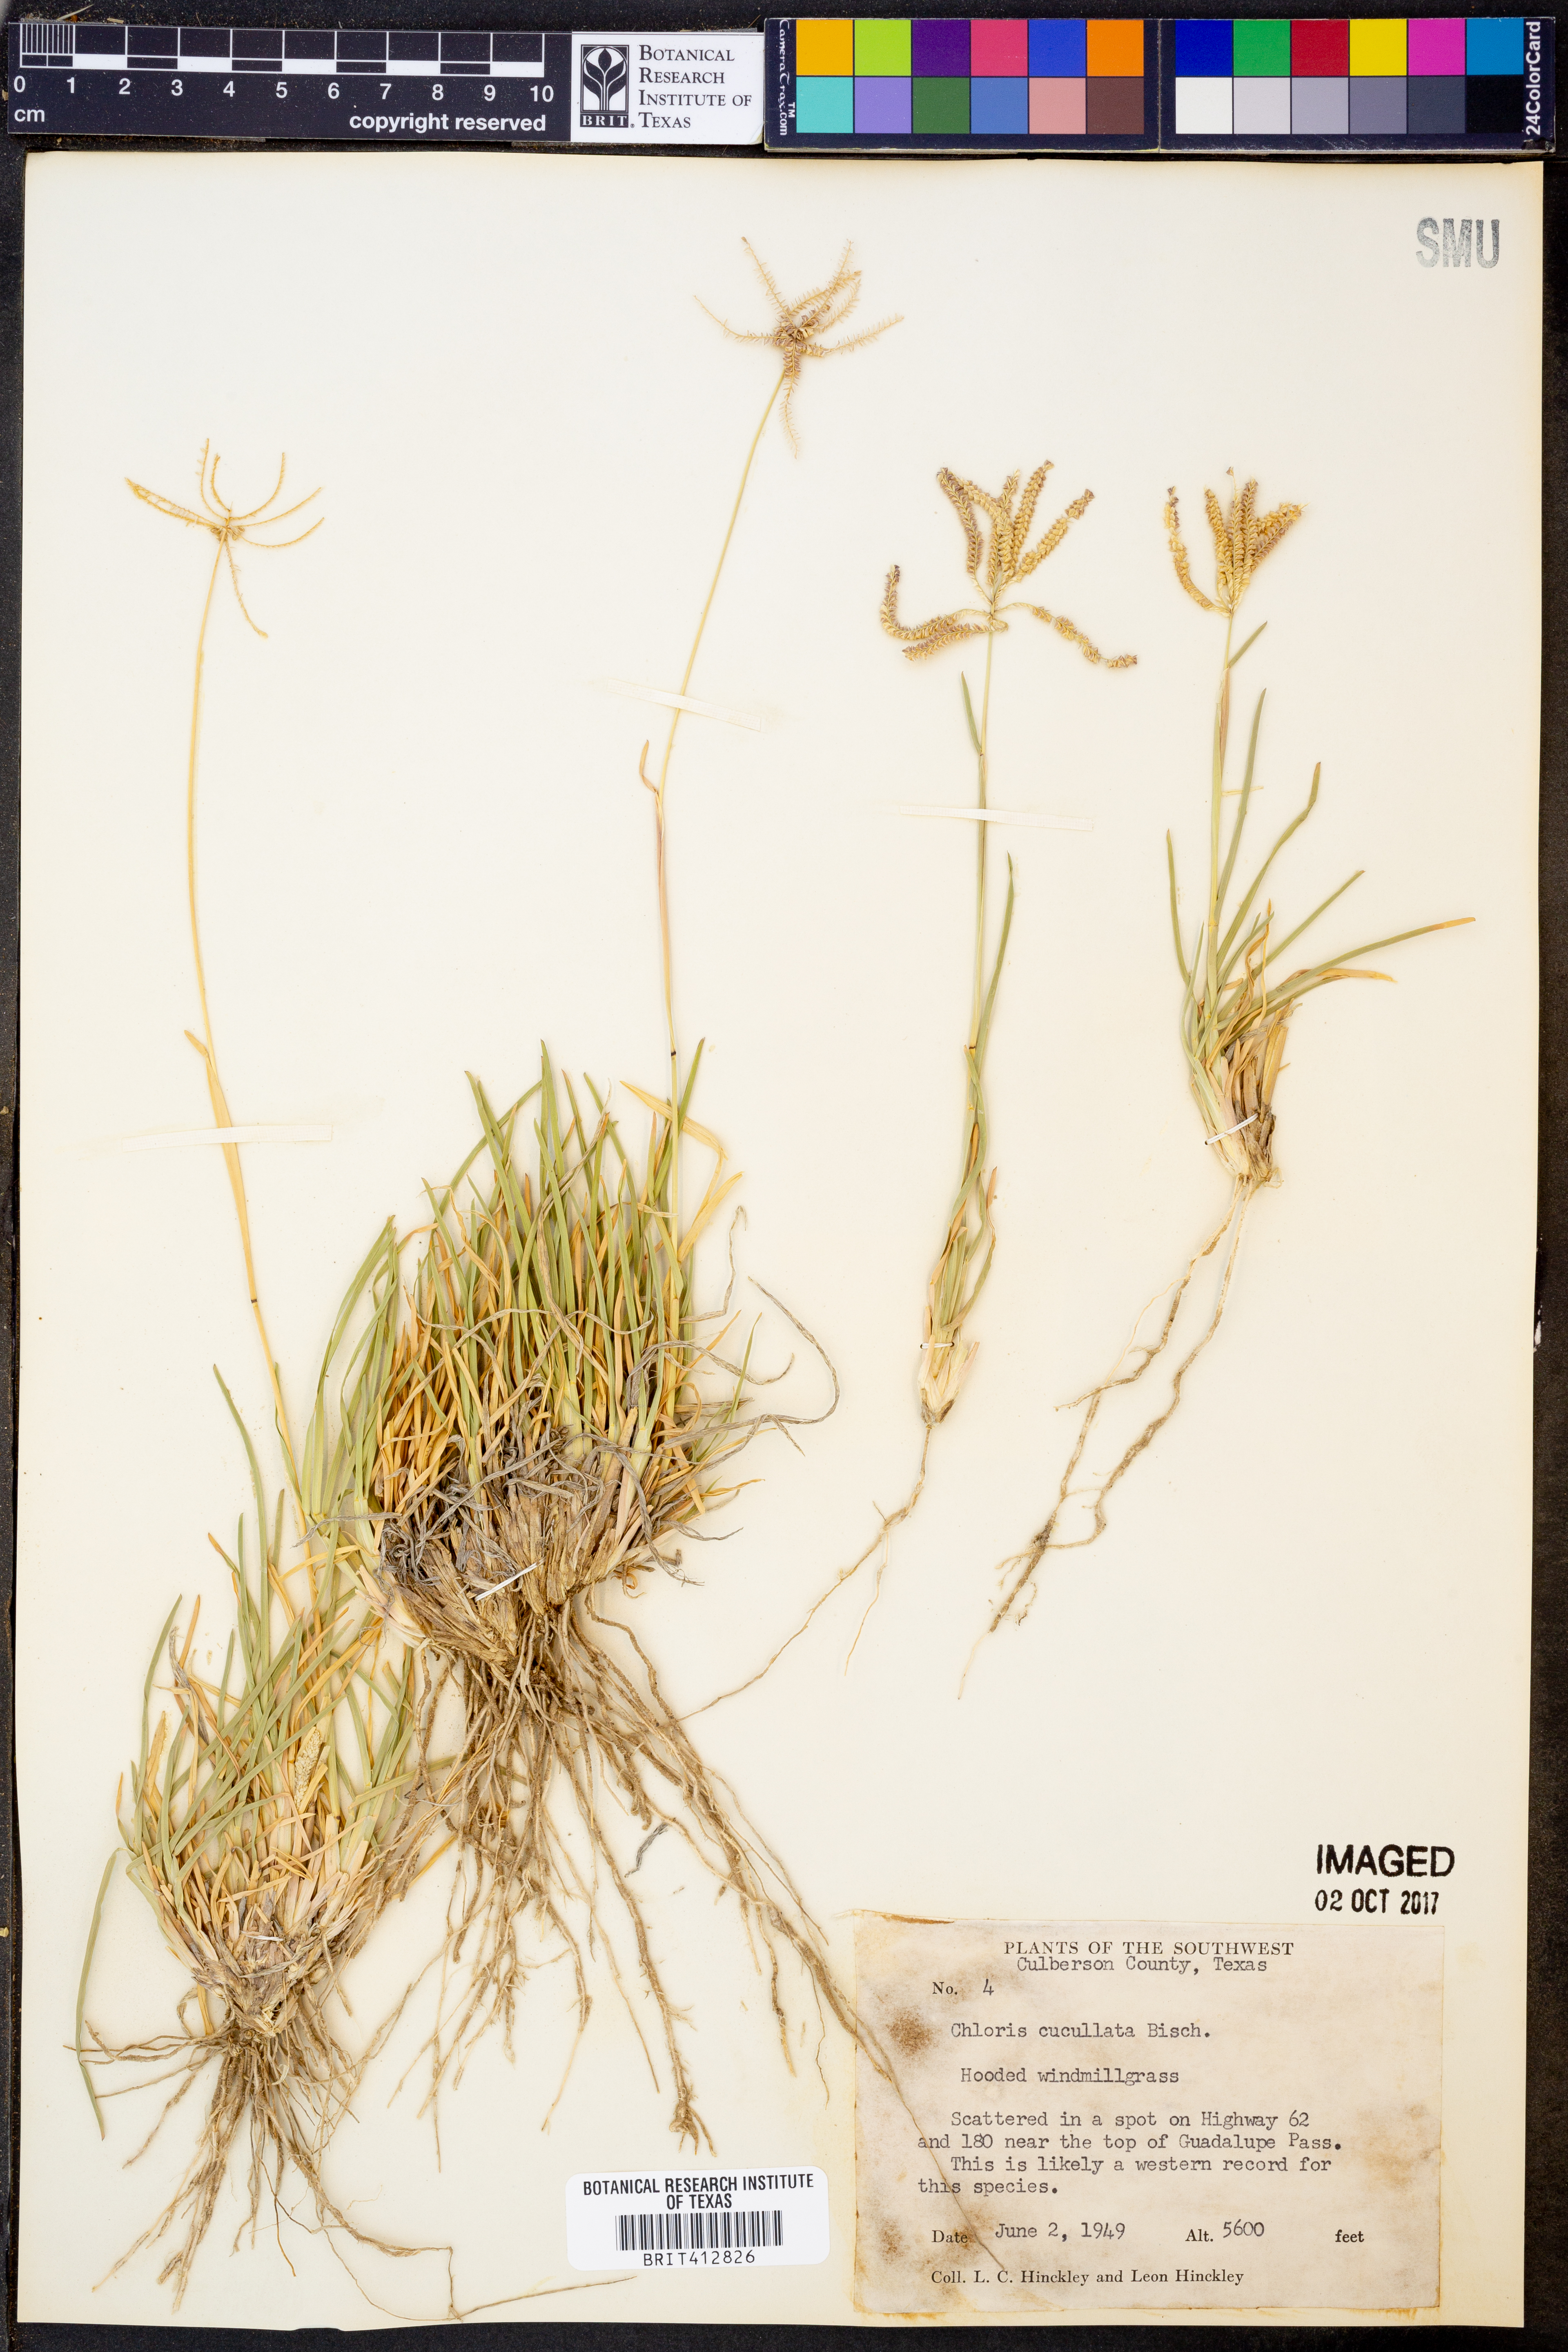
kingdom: Plantae
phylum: Tracheophyta
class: Liliopsida
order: Poales
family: Poaceae
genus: Chloris
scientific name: Chloris cucullata
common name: Hooded windmill grass
